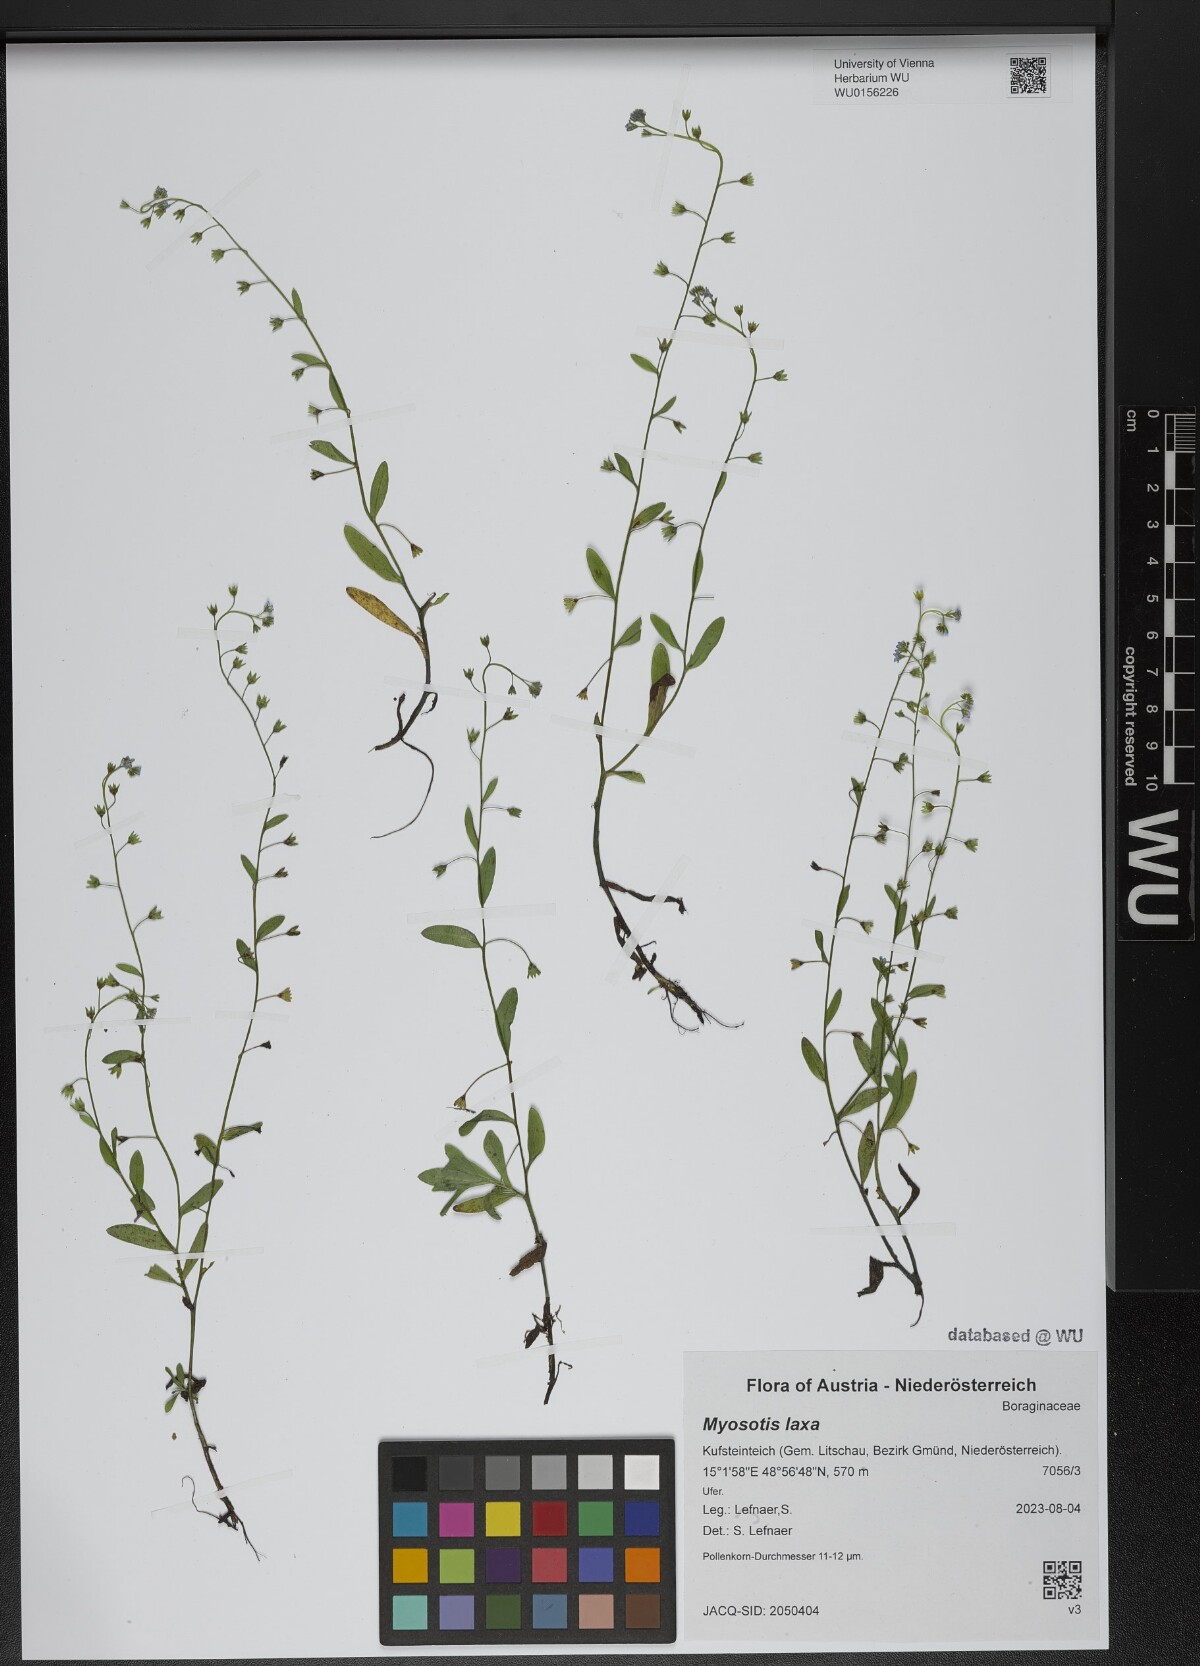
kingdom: Plantae
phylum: Tracheophyta
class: Magnoliopsida
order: Boraginales
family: Boraginaceae
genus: Myosotis
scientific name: Myosotis laxa
